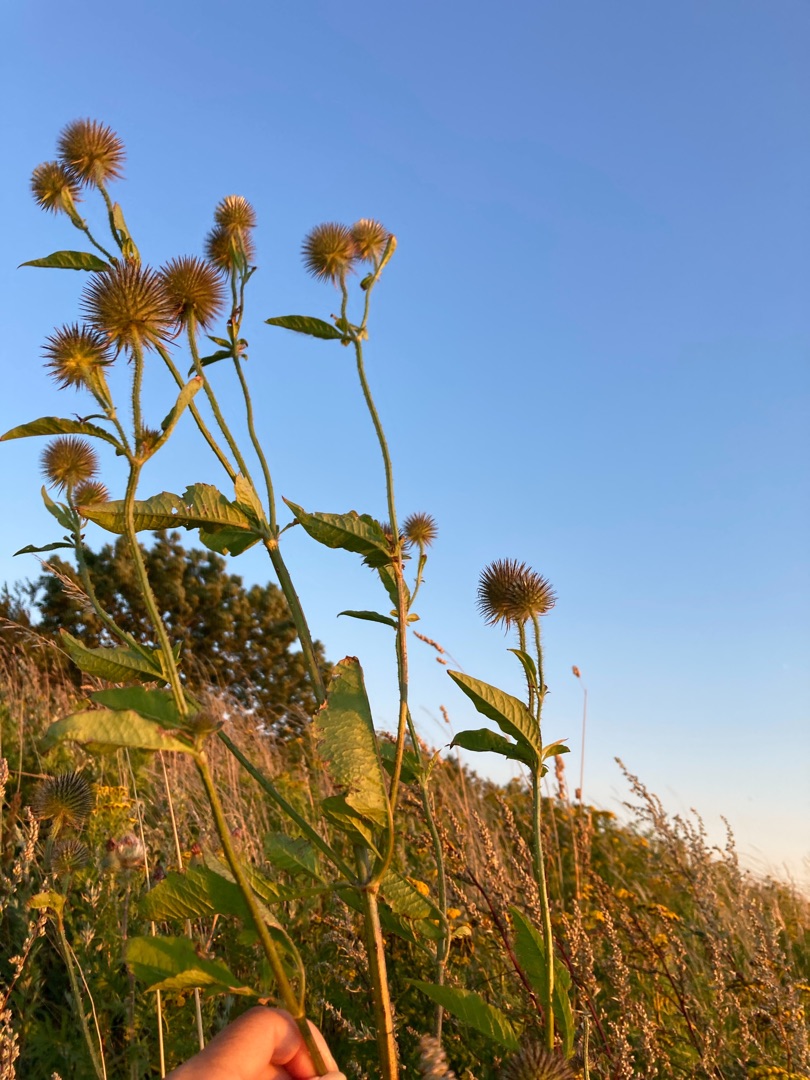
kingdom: Plantae
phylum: Tracheophyta
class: Magnoliopsida
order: Dipsacales
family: Caprifoliaceae
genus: Dipsacus
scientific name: Dipsacus strigosus
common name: Pindsvin-kartebolle
